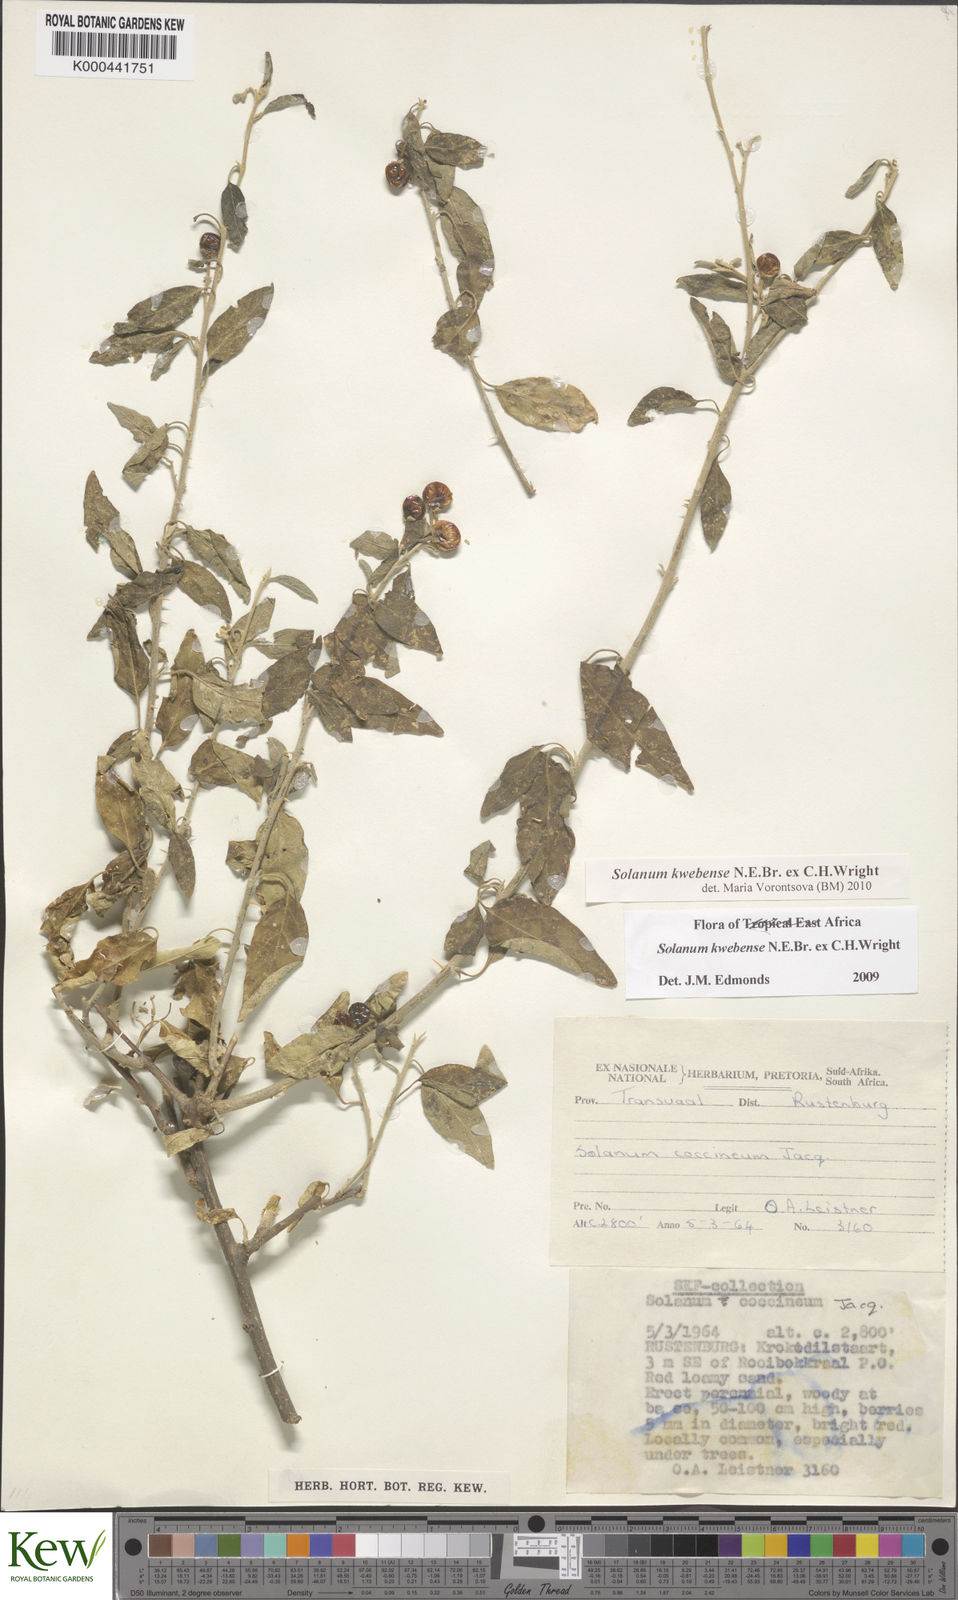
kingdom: Plantae
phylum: Tracheophyta
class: Magnoliopsida
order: Solanales
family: Solanaceae
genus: Solanum
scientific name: Solanum tettense
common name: Mozambique bitter apple
